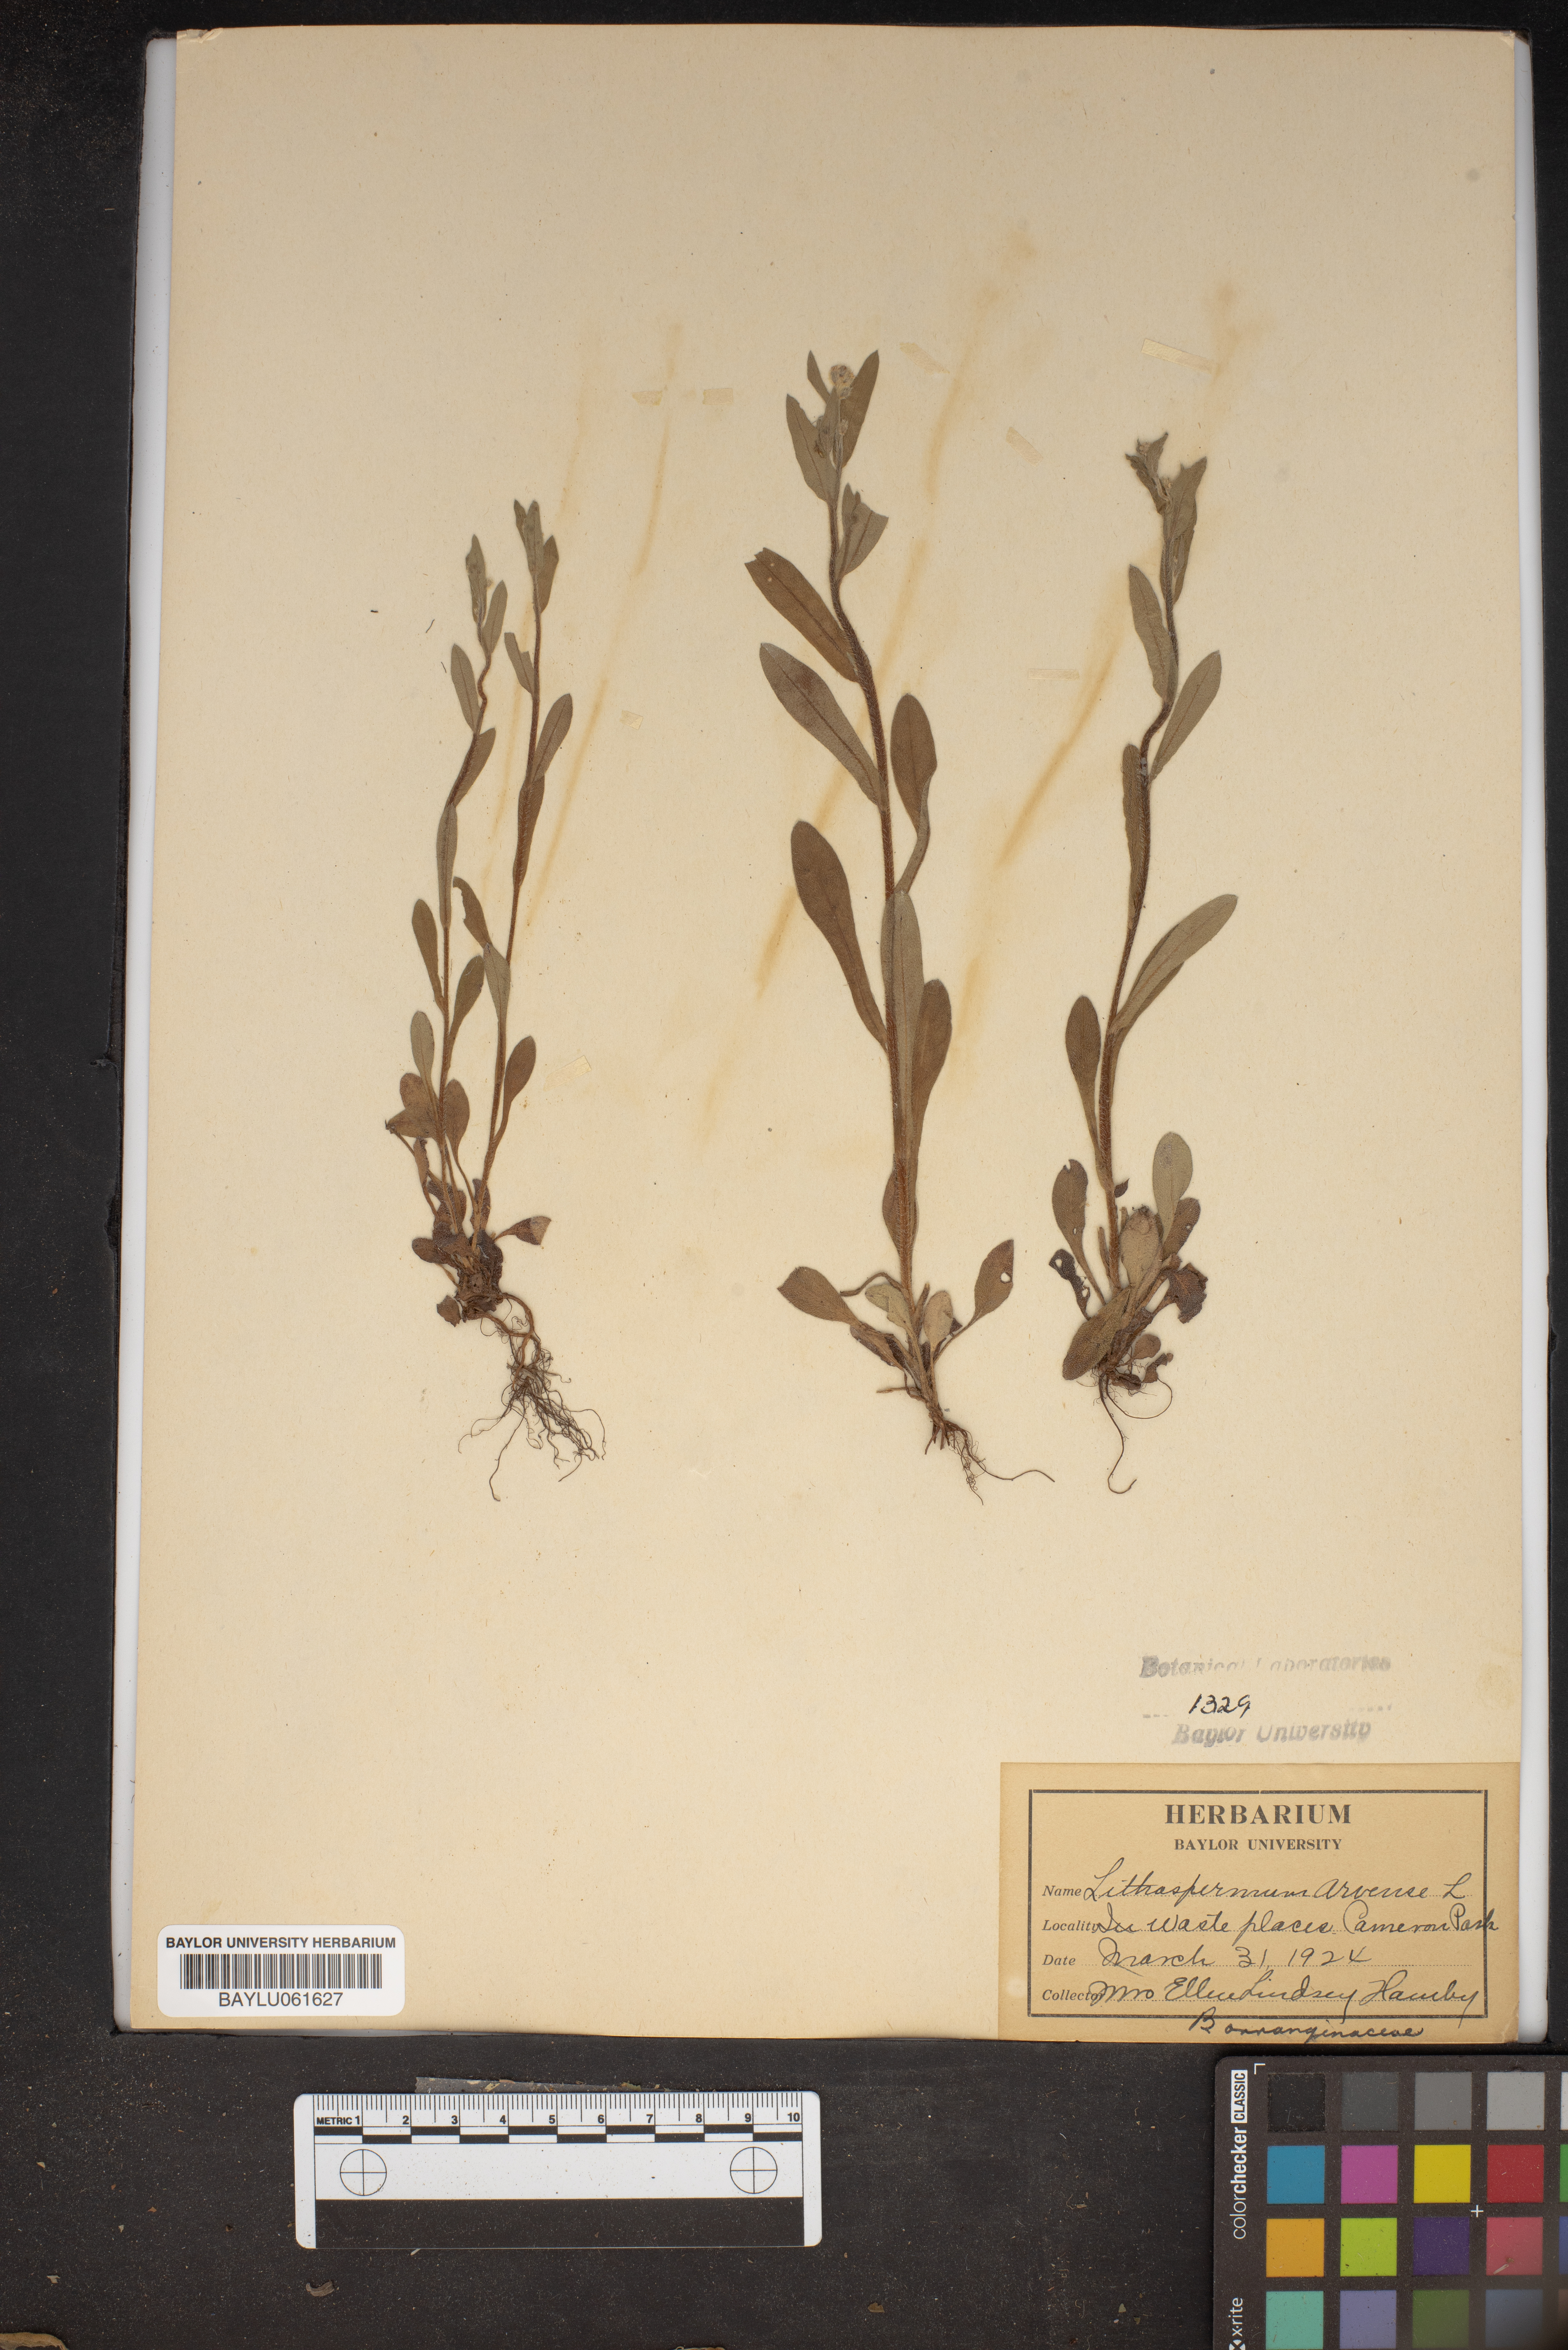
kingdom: Plantae
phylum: Tracheophyta
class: Magnoliopsida
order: Boraginales
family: Boraginaceae
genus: Lithospermum
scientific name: Lithospermum erythrorhizon
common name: Purple gromwell
